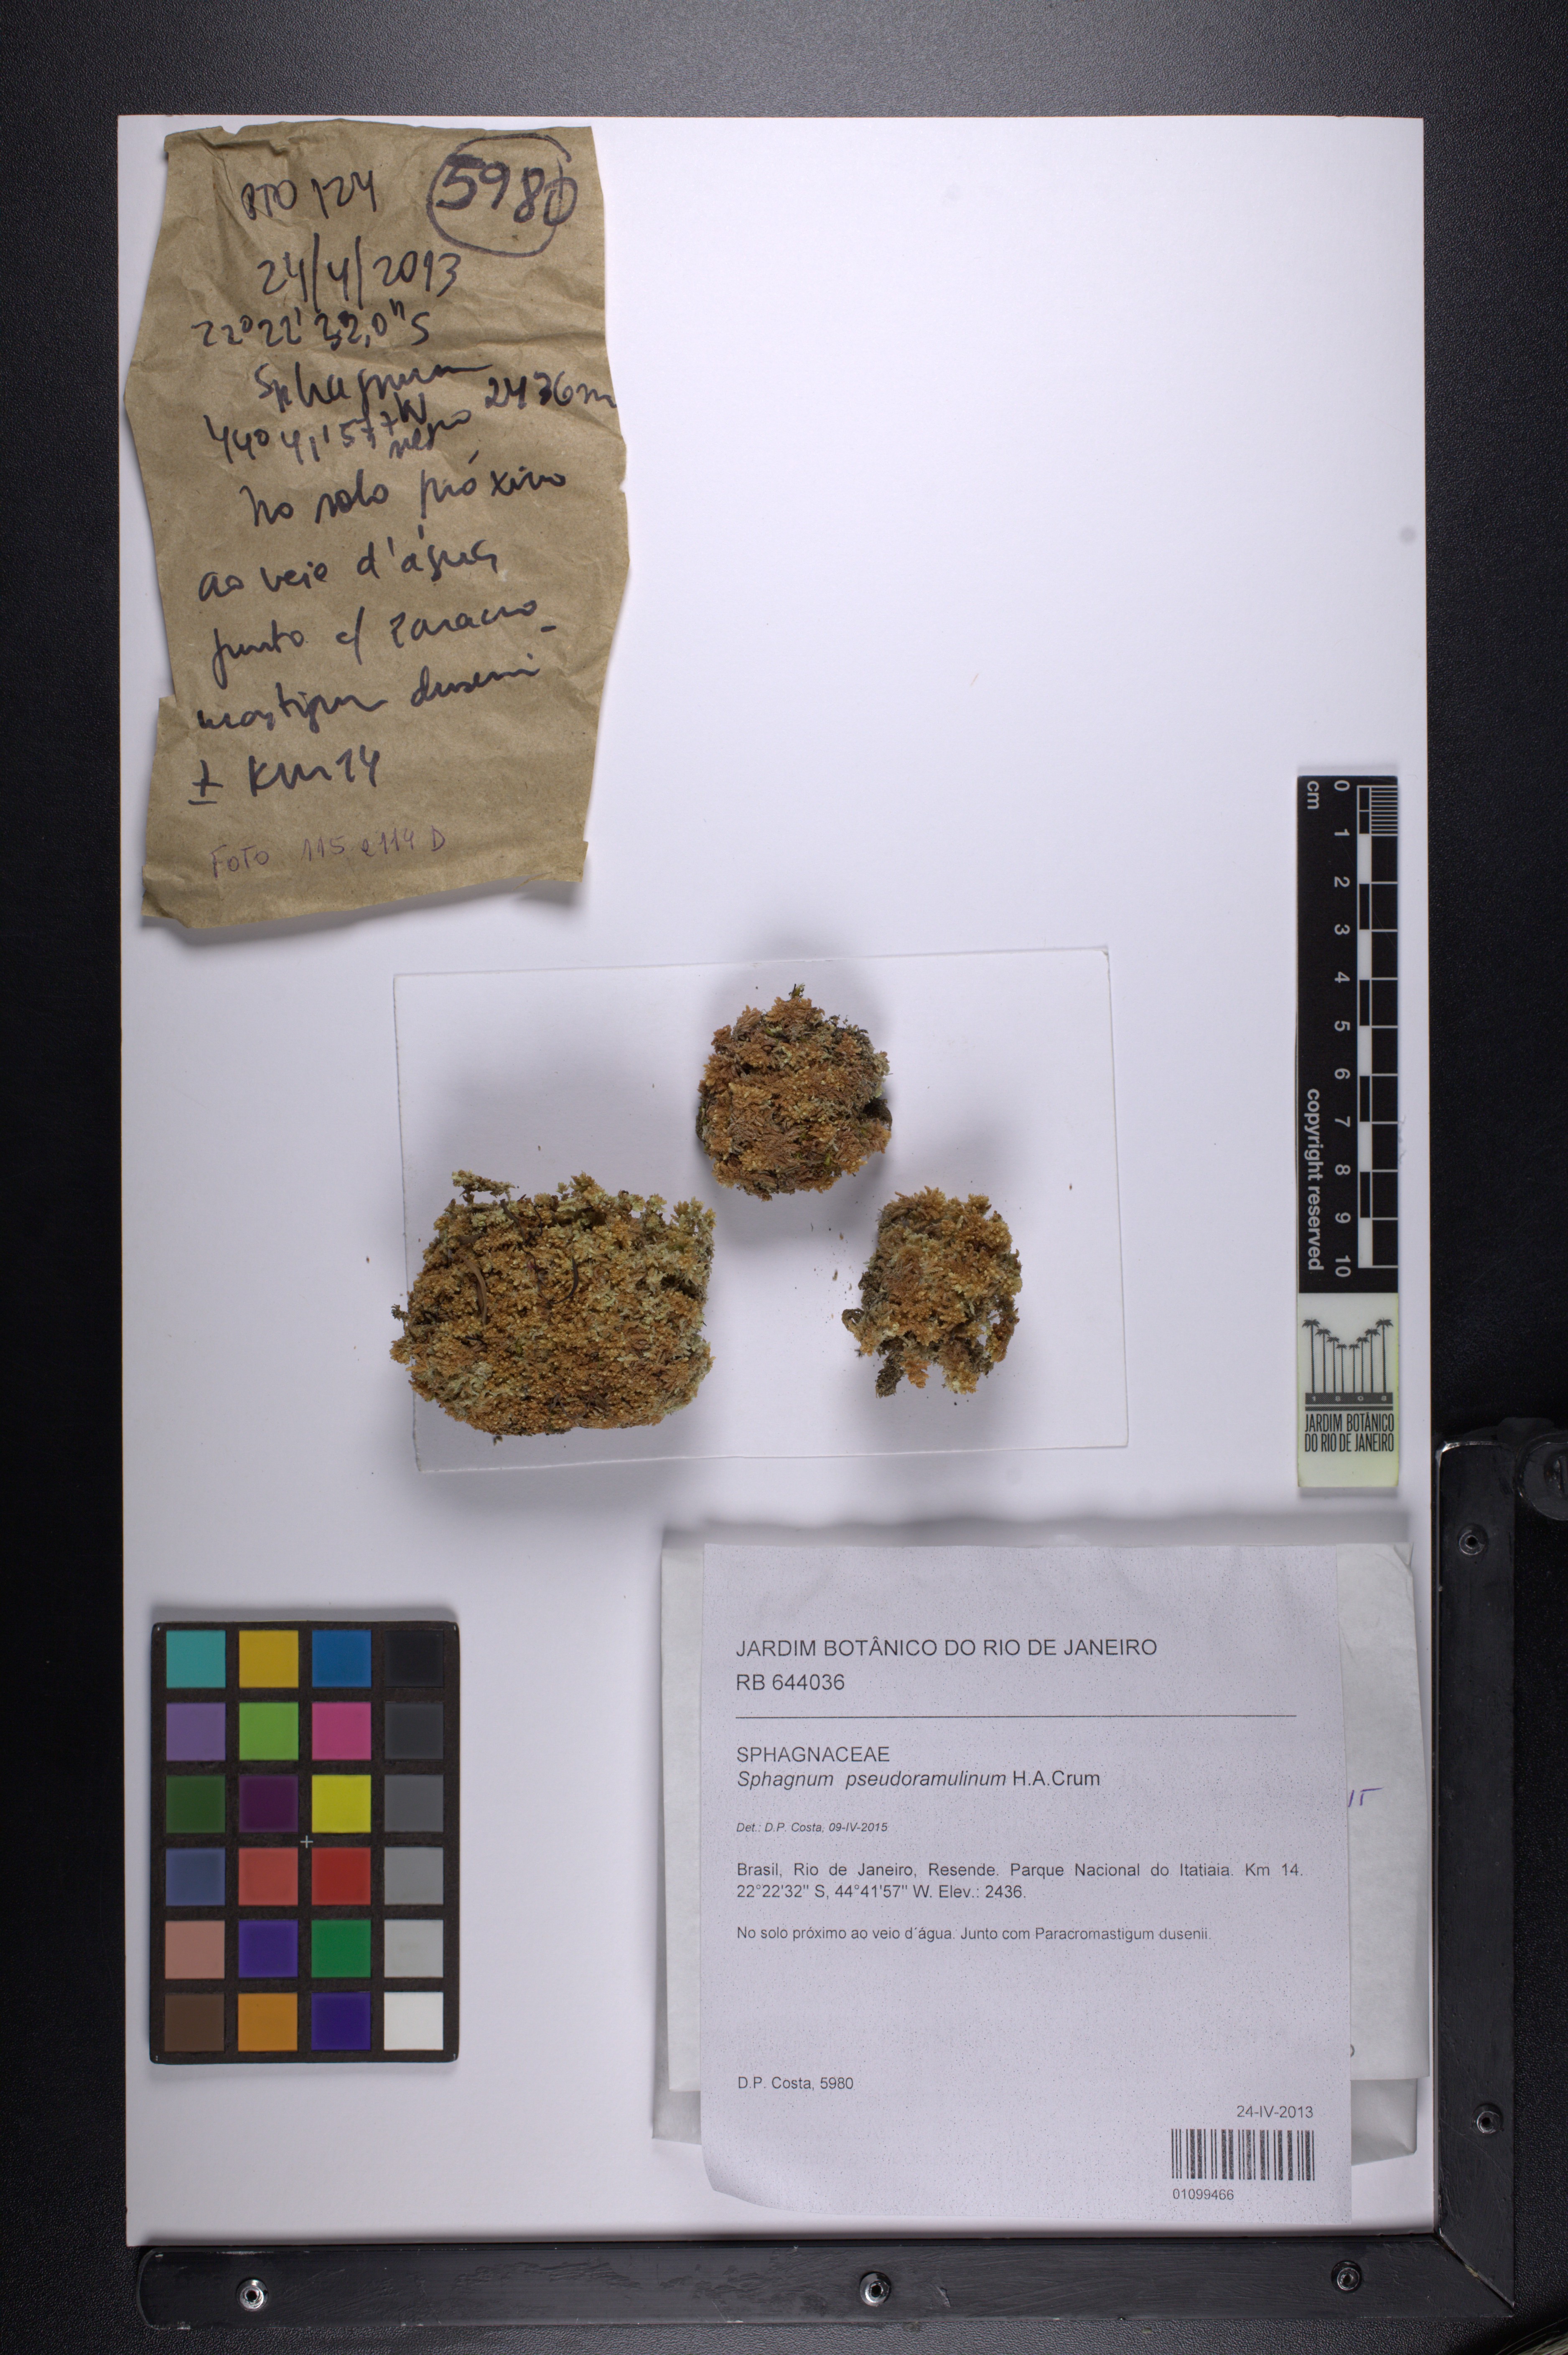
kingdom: Plantae
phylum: Bryophyta
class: Sphagnopsida
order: Sphagnales
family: Sphagnaceae
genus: Sphagnum
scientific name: Sphagnum pseudoramulinum
